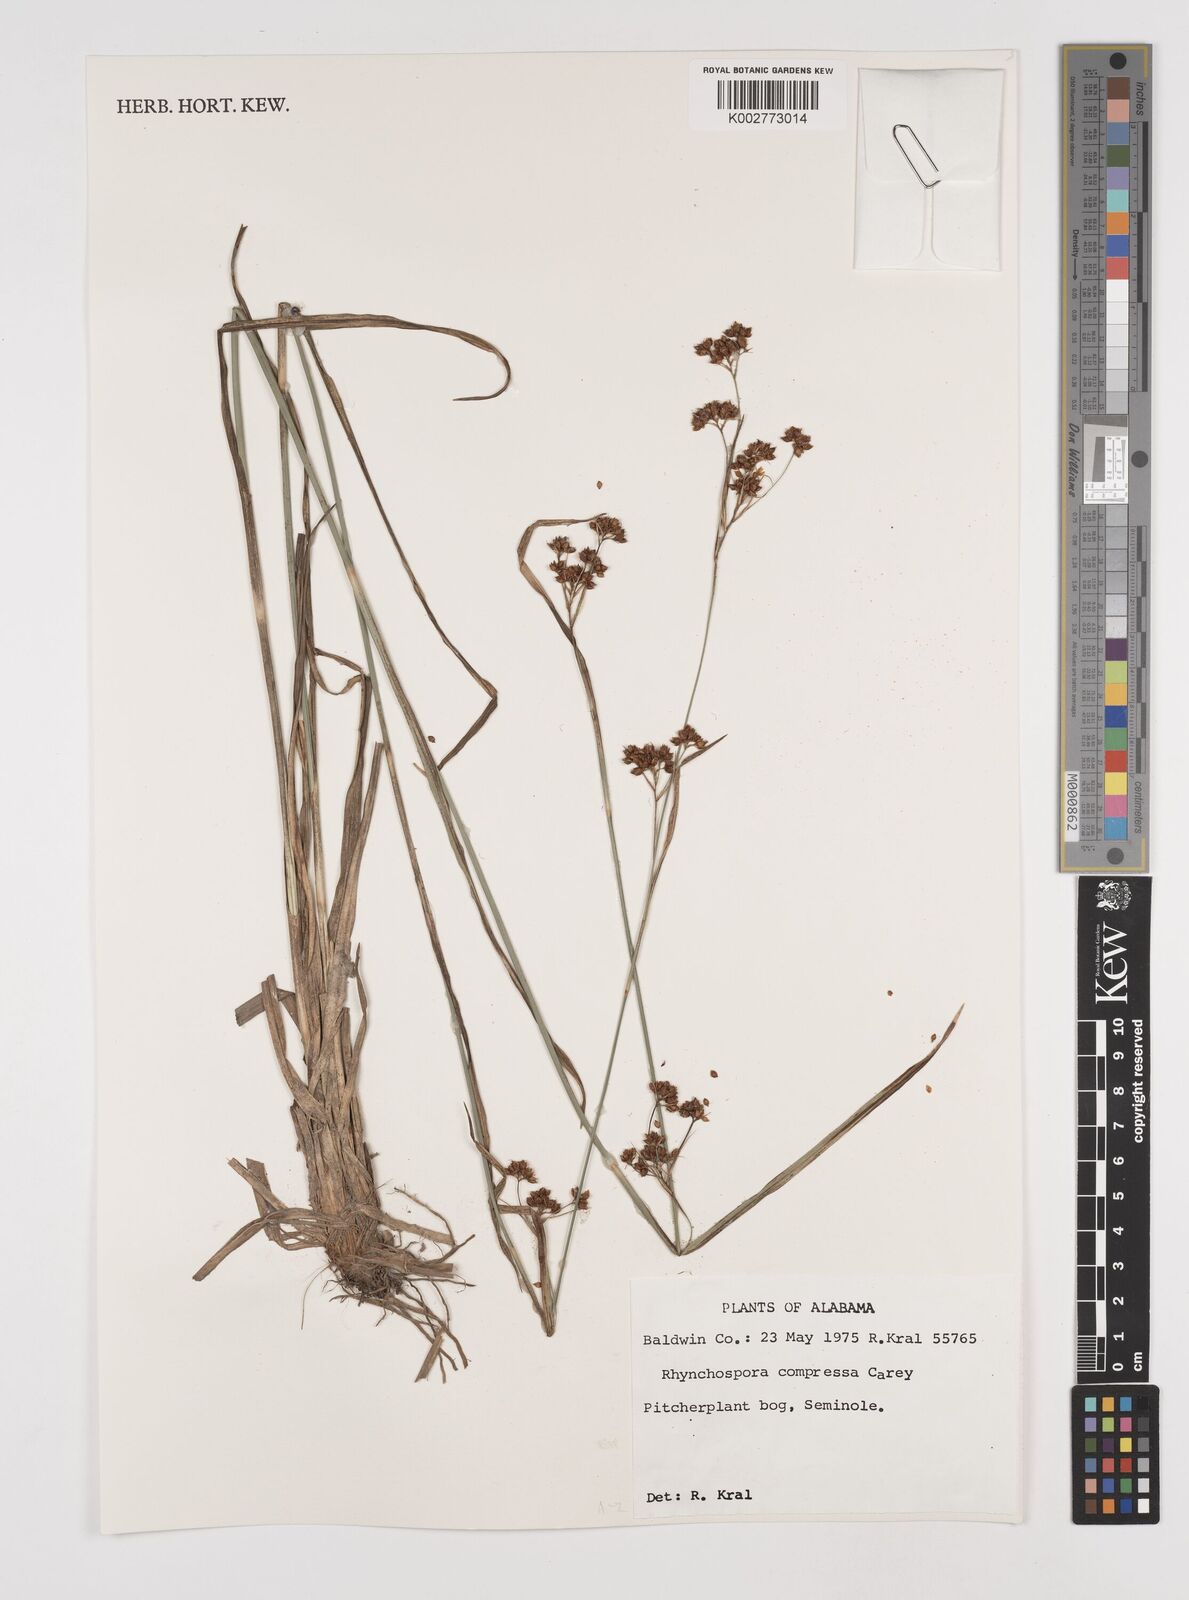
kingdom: Plantae
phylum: Tracheophyta
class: Liliopsida
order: Poales
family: Cyperaceae
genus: Rhynchospora
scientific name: Rhynchospora compressa
